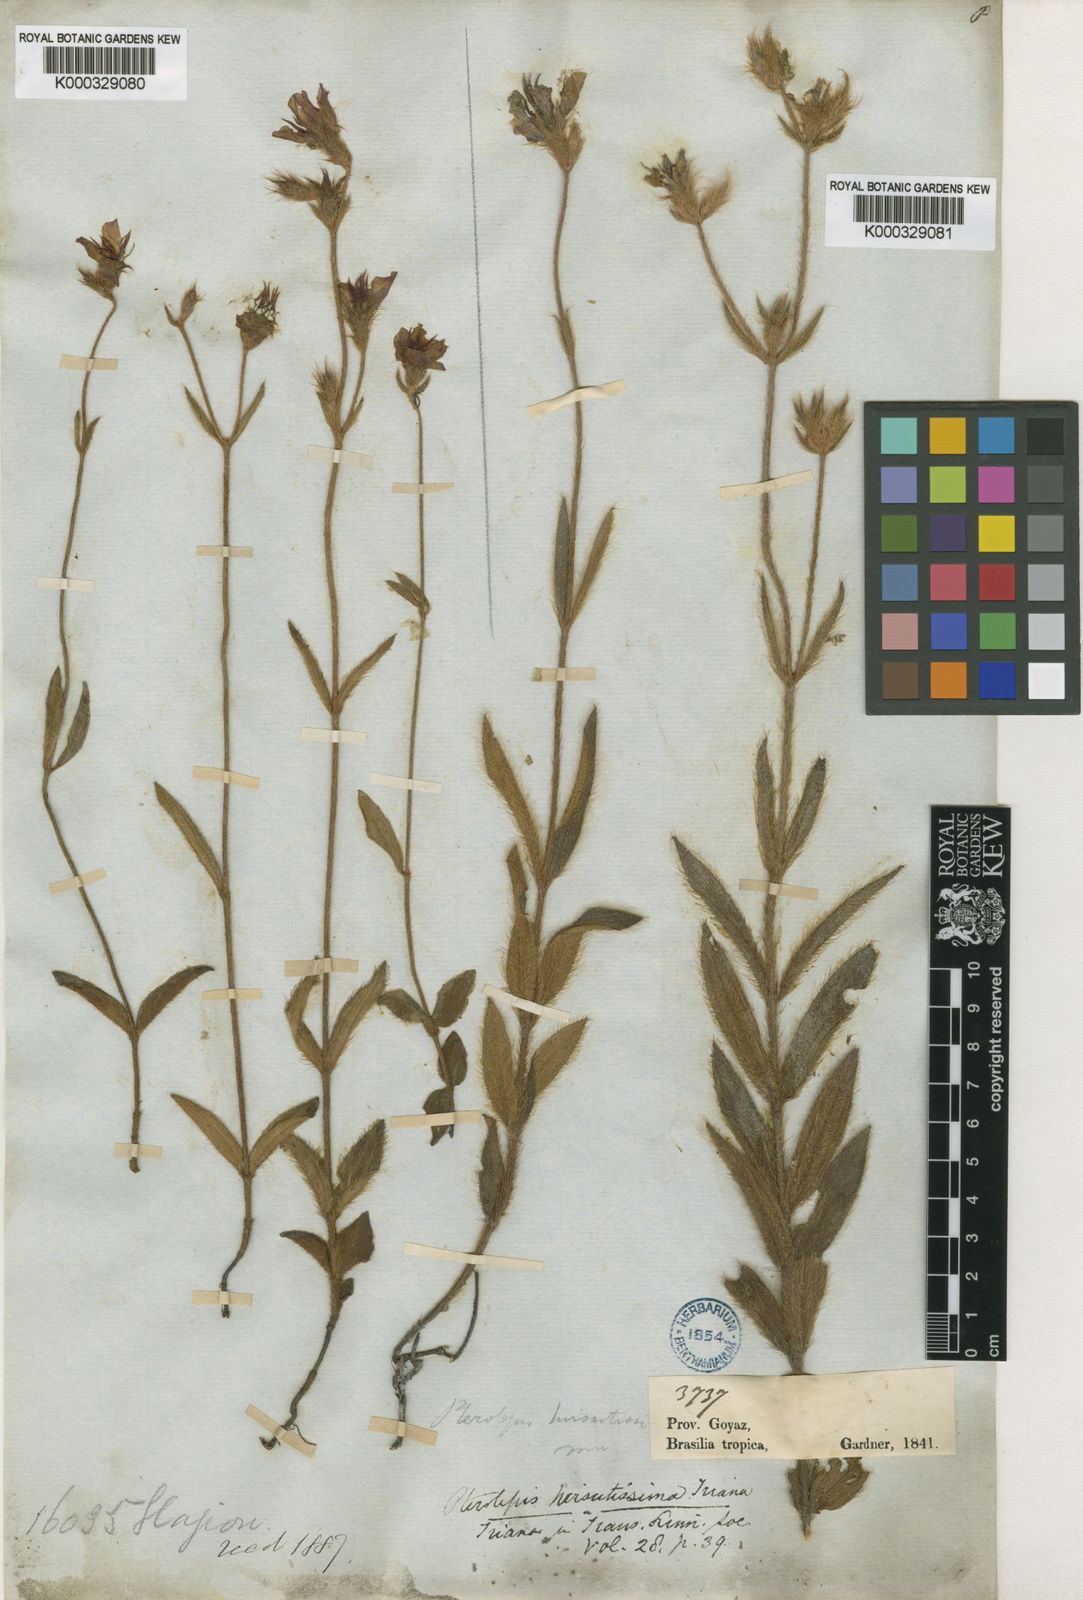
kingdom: Plantae
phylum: Tracheophyta
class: Magnoliopsida
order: Myrtales
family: Melastomataceae
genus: Chaetogastra
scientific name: Chaetogastra gracilis
